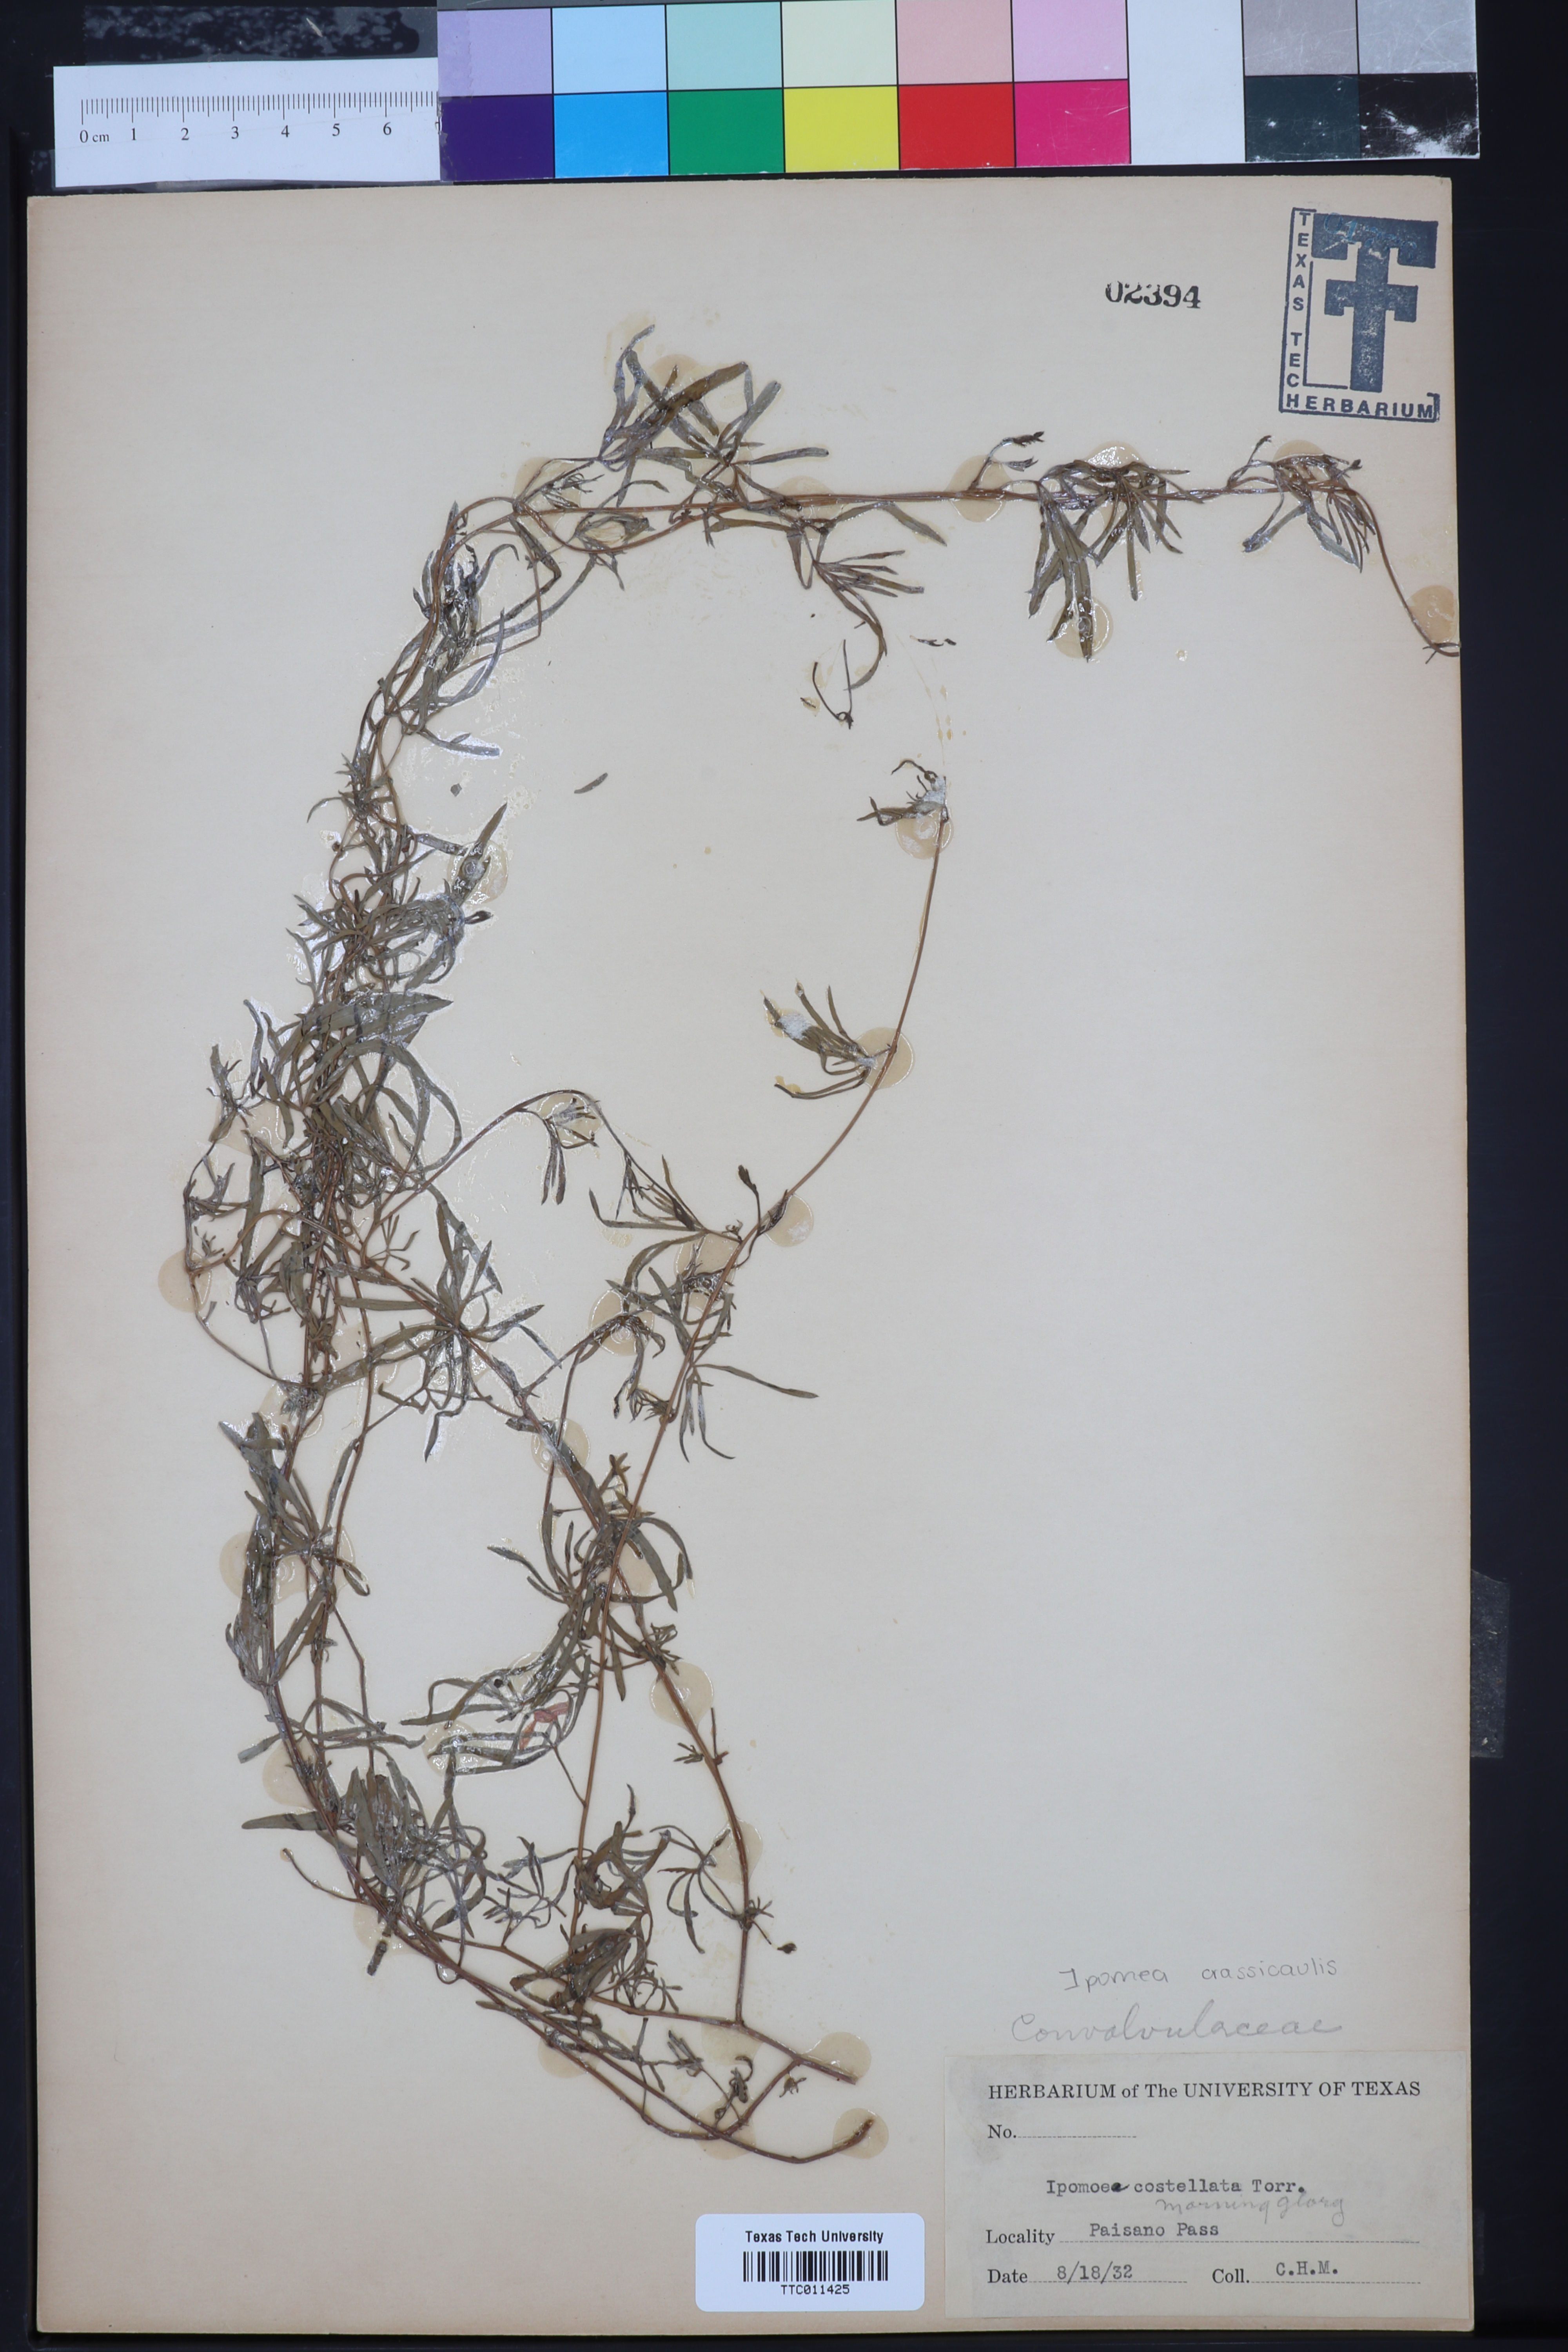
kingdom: Plantae
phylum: Tracheophyta
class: Magnoliopsida
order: Solanales
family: Convolvulaceae
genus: Ipomoea
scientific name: Ipomoea costellata
